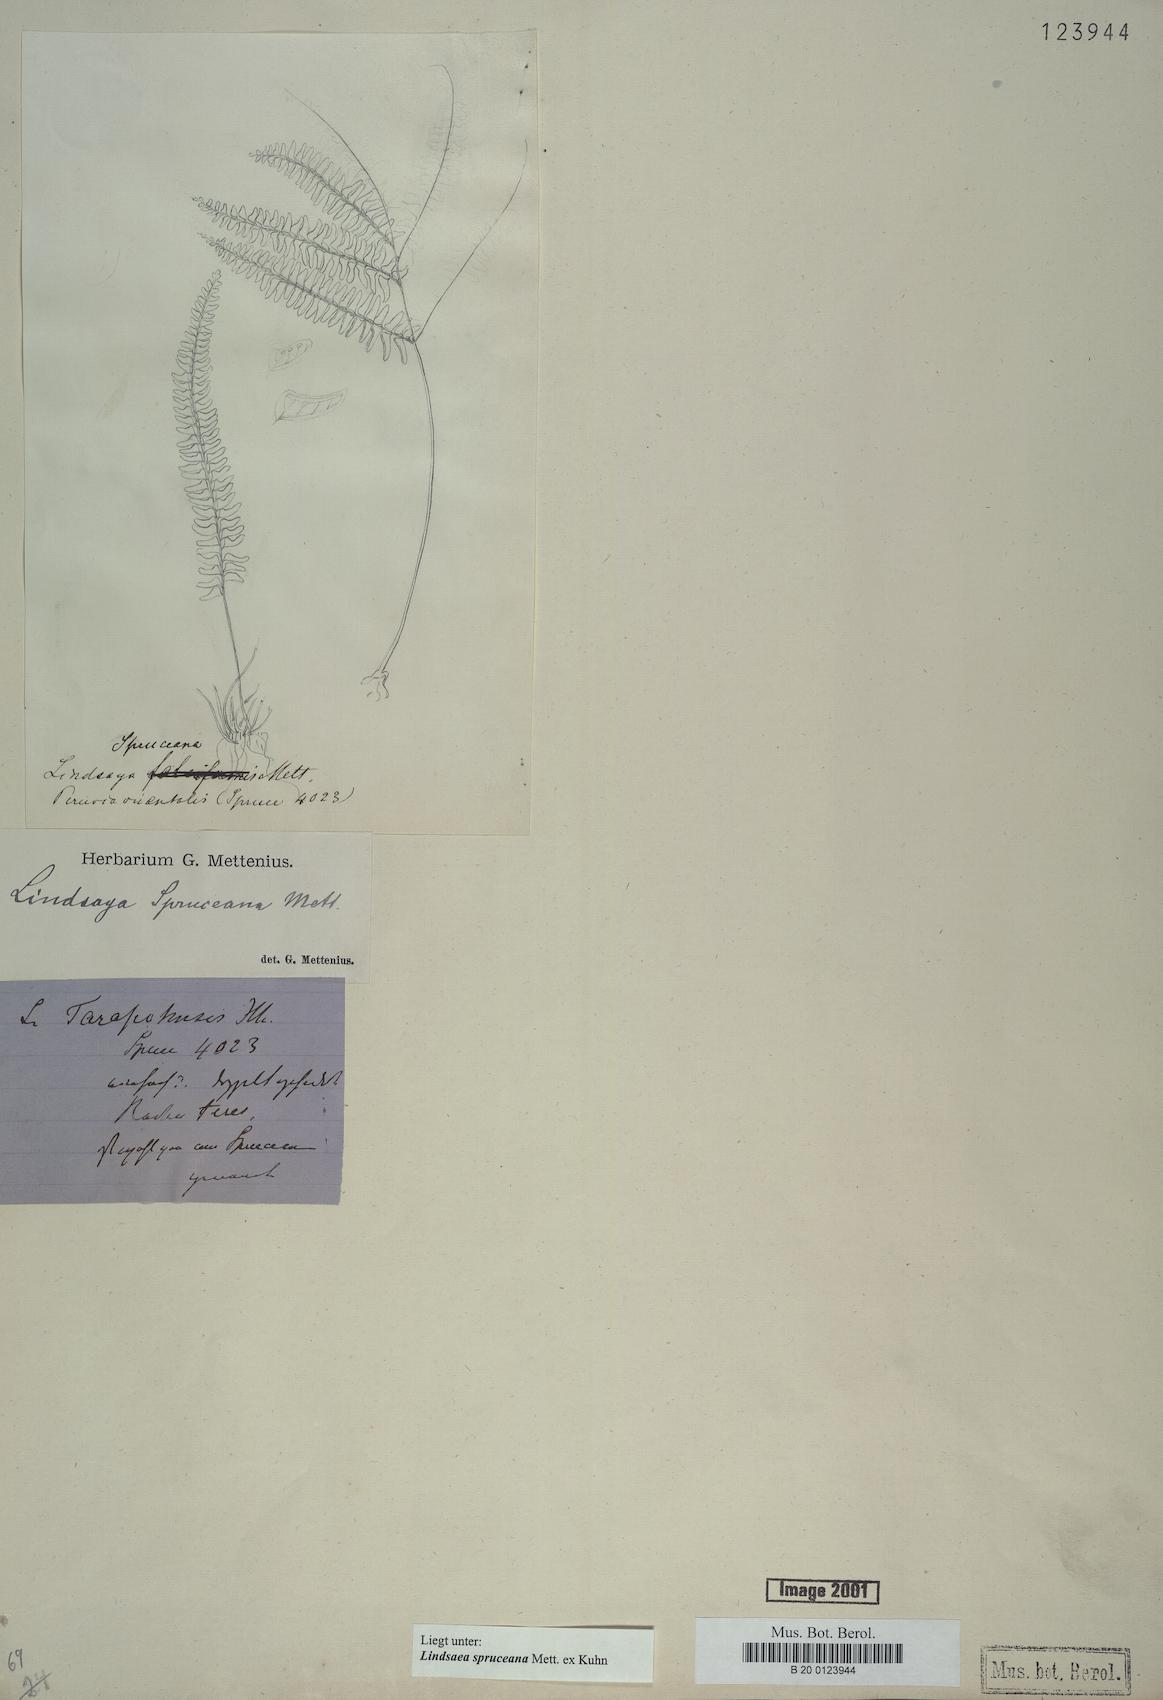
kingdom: Plantae
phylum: Tracheophyta
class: Polypodiopsida
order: Polypodiales
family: Lindsaeaceae
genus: Lindsaea
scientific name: Lindsaea spruceana
